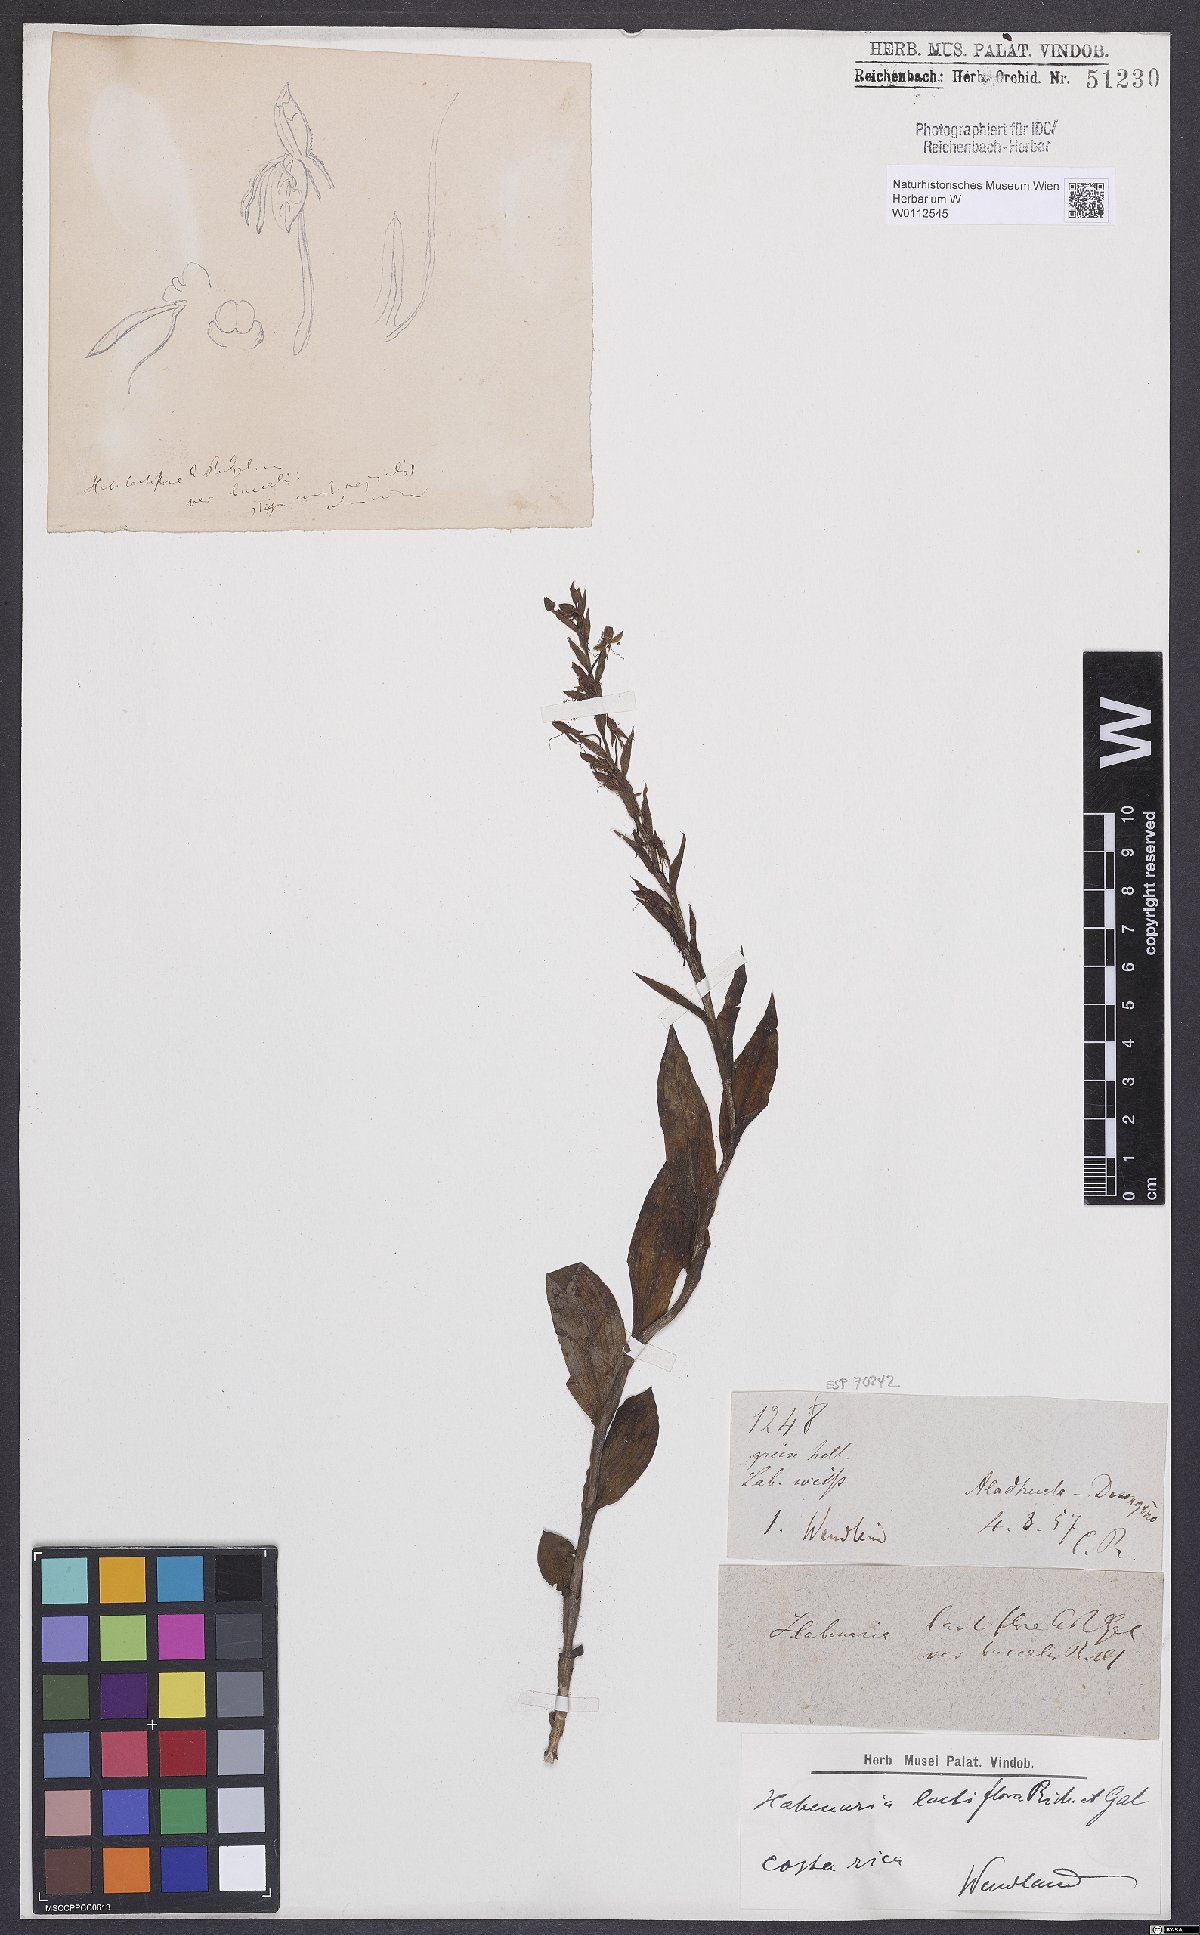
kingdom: Plantae
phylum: Tracheophyta
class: Liliopsida
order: Asparagales
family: Orchidaceae
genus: Habenaria
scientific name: Habenaria lactiflora
